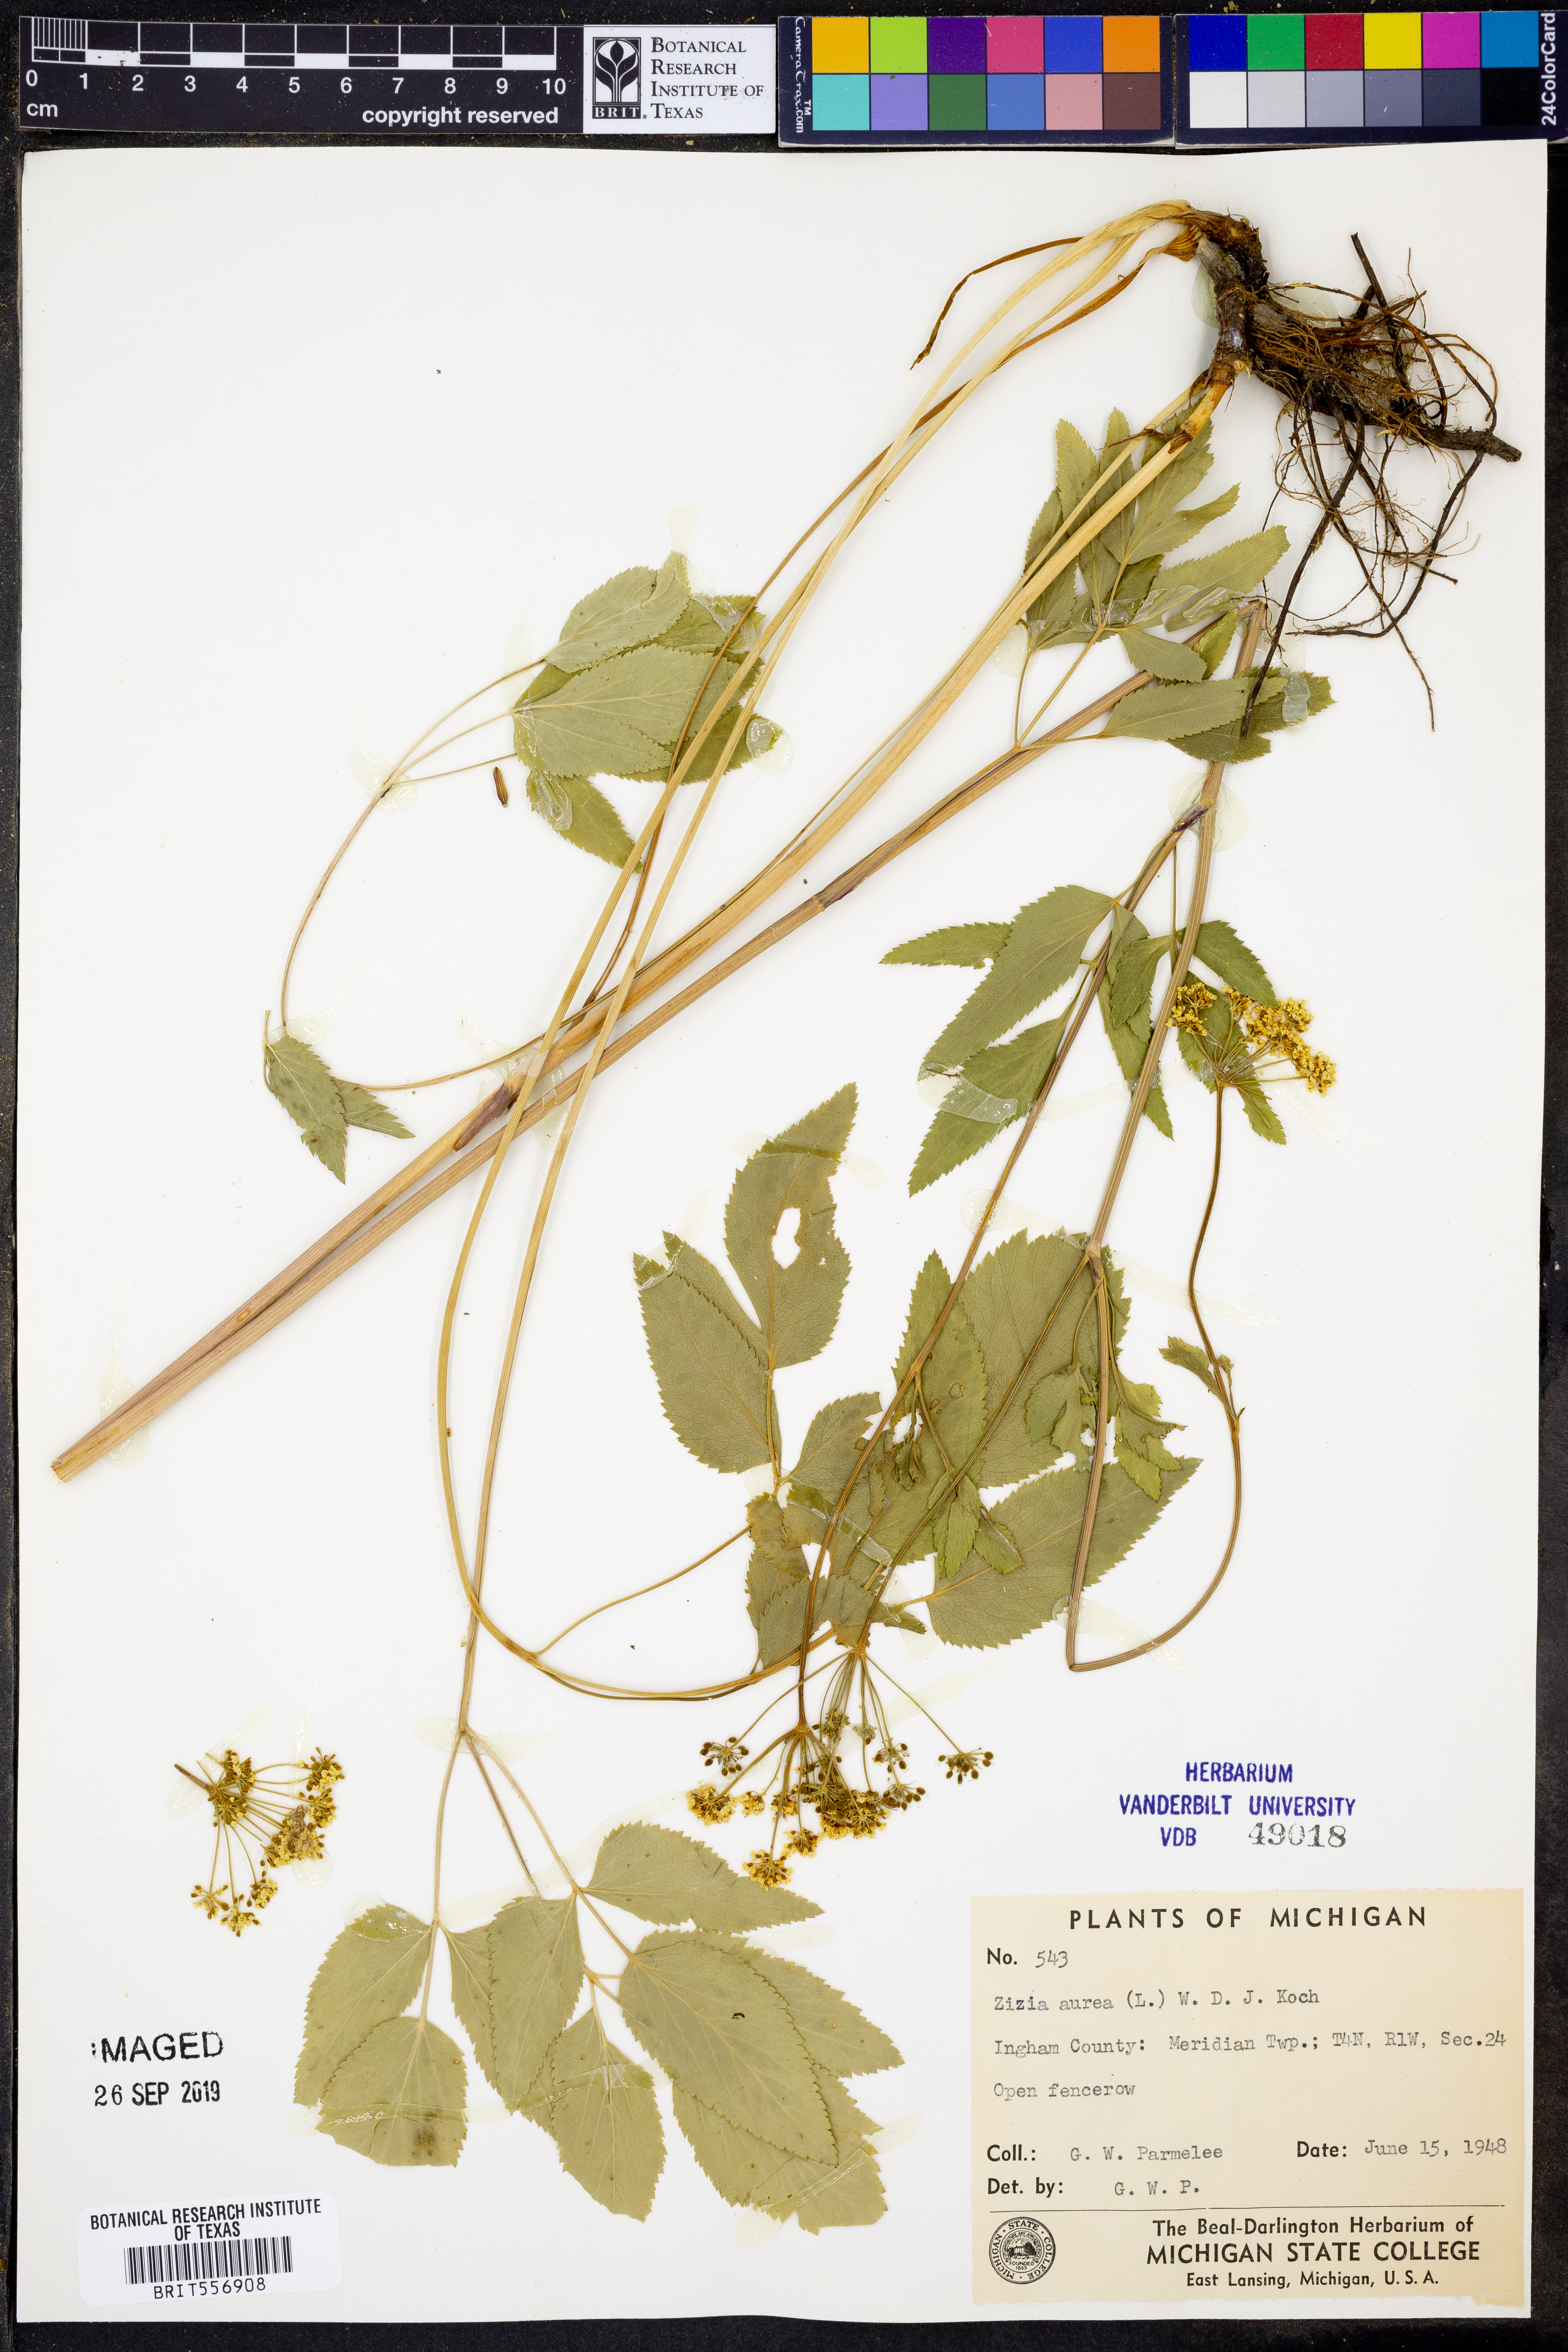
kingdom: Plantae
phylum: Tracheophyta
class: Magnoliopsida
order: Apiales
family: Apiaceae
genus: Zizia
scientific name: Zizia aurea
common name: Golden alexanders
